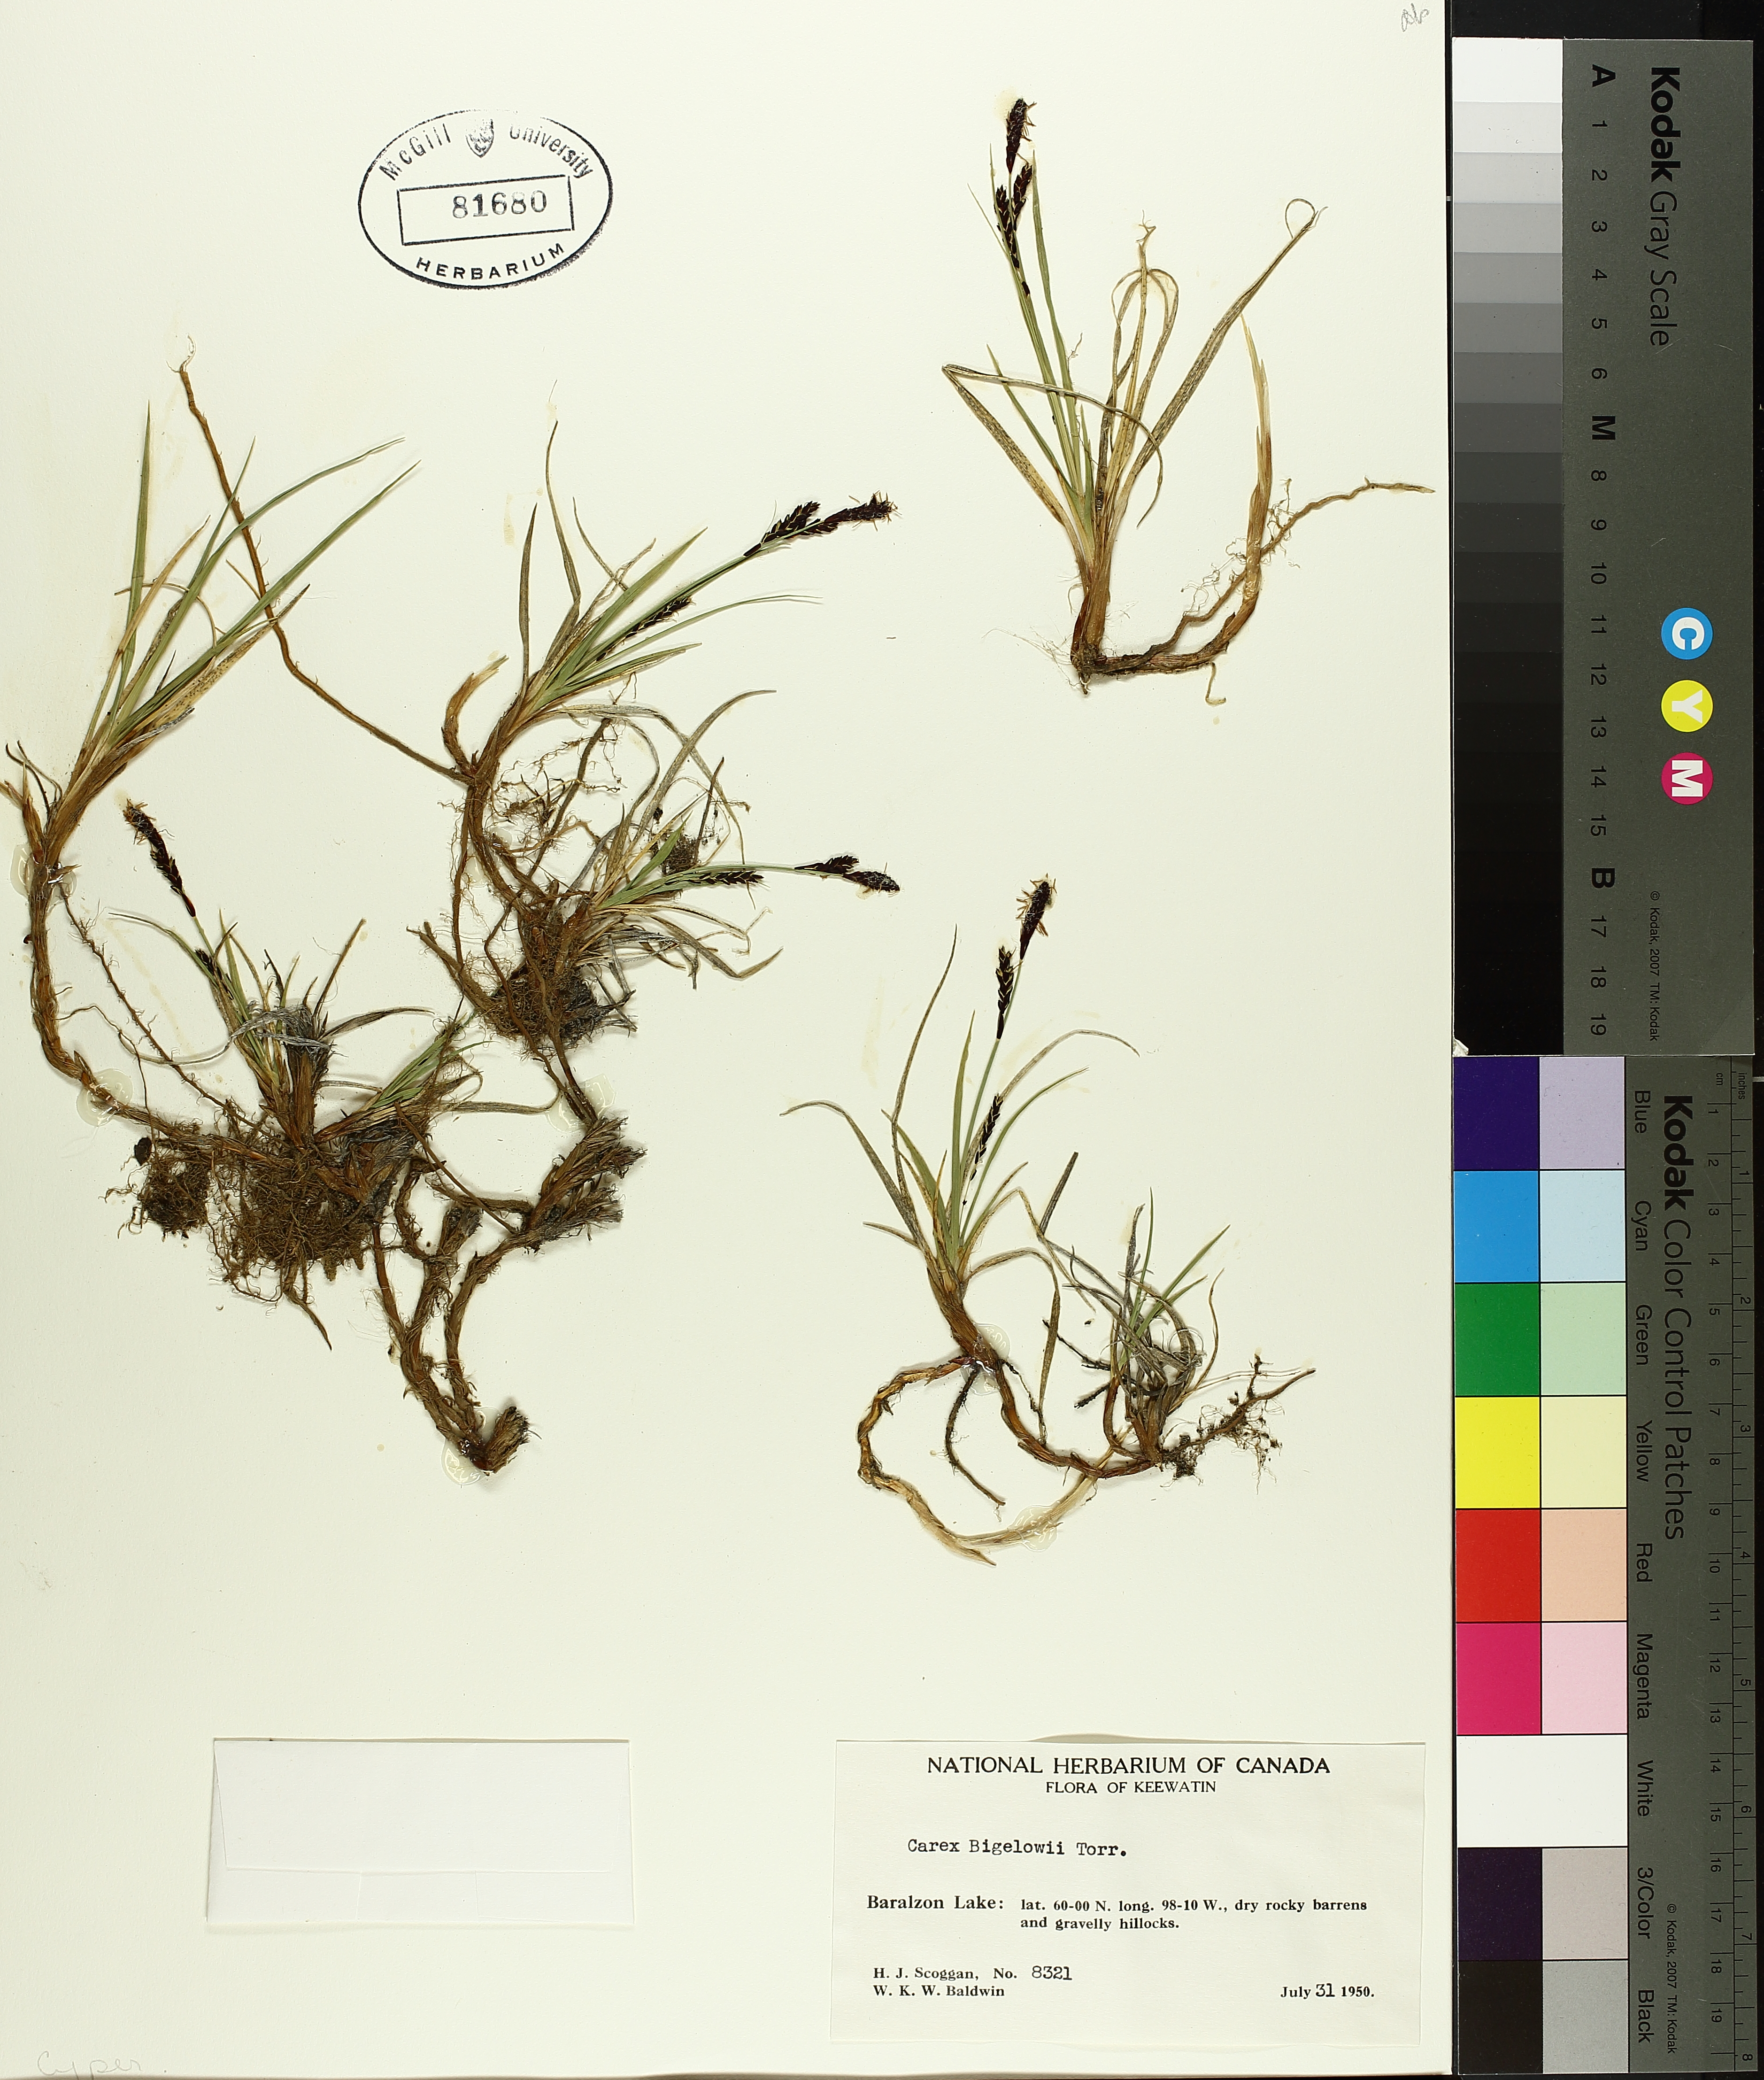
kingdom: Plantae
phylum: Tracheophyta
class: Liliopsida
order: Poales
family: Cyperaceae
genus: Carex
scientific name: Carex bigelowii
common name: Stiff sedge
